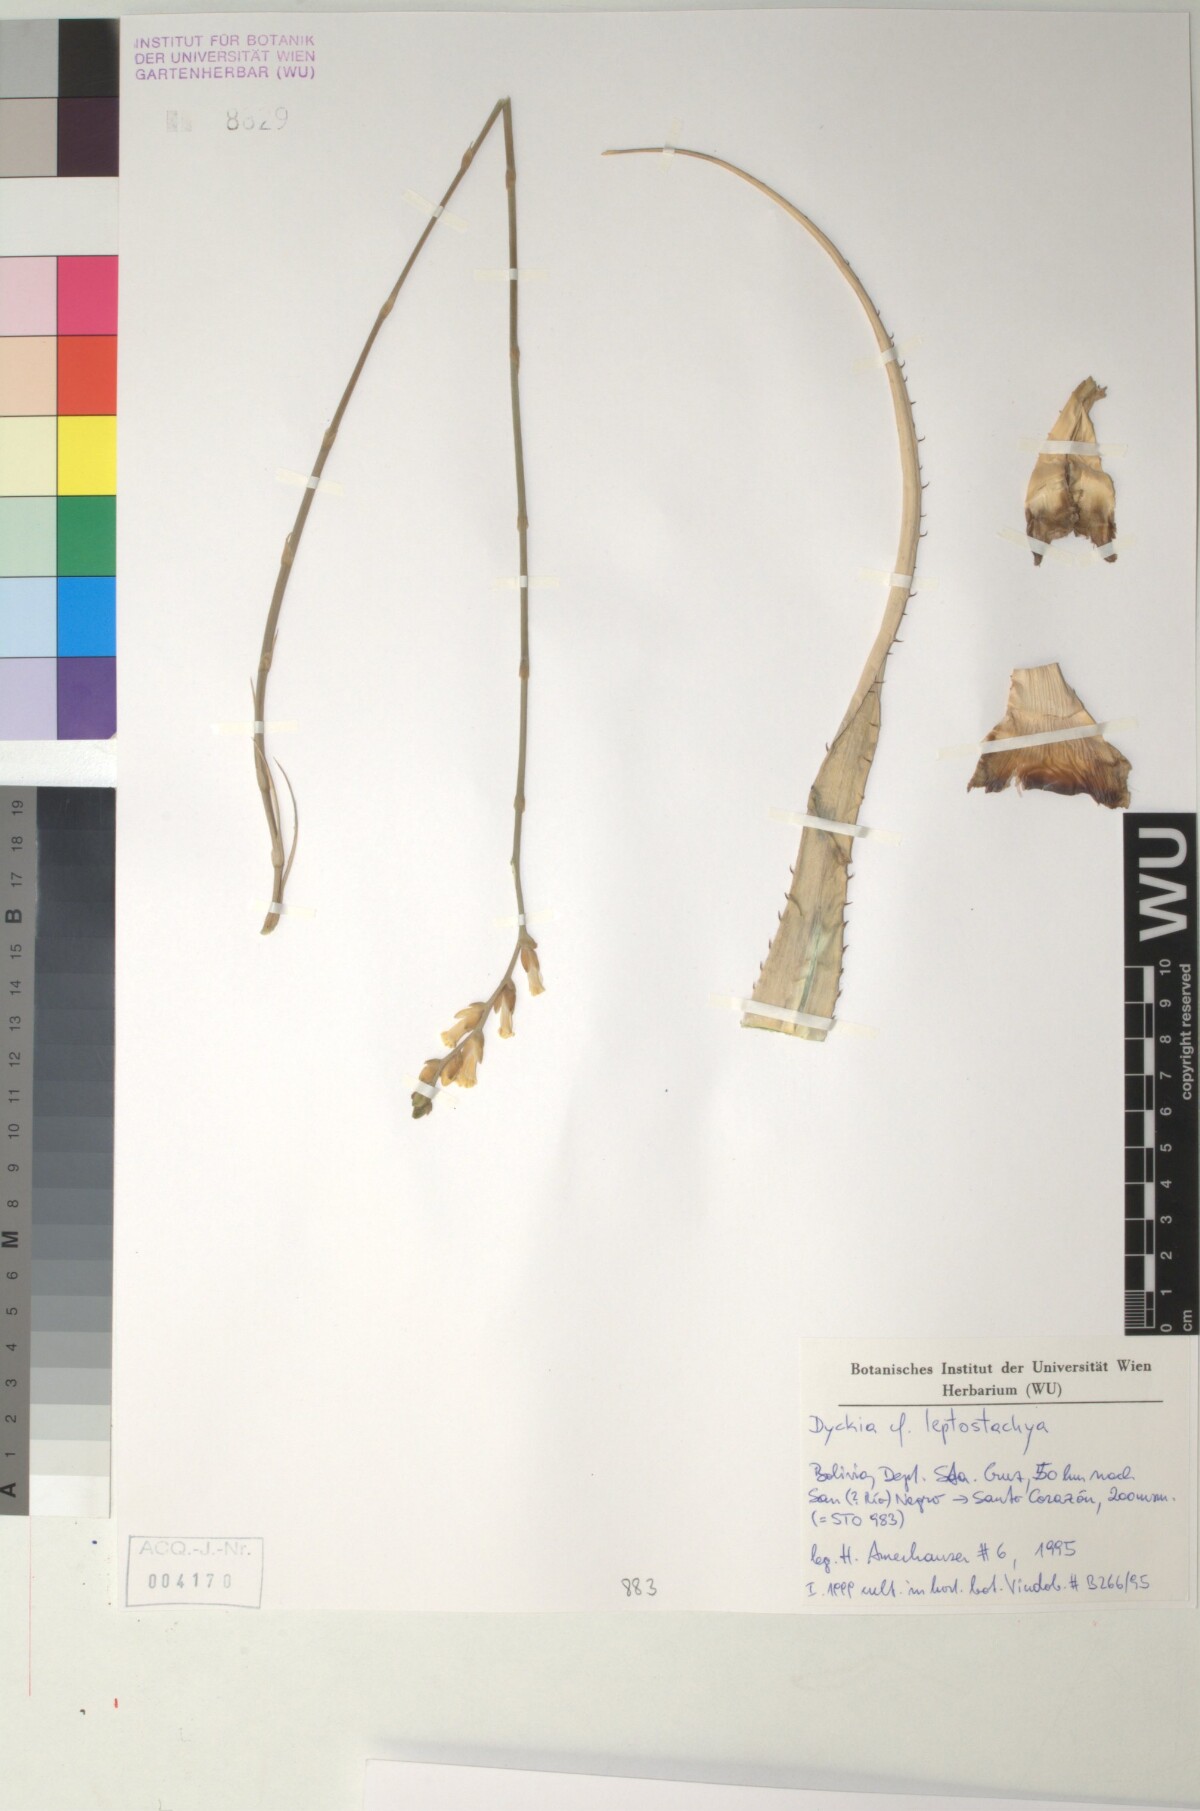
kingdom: Plantae
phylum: Tracheophyta
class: Liliopsida
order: Poales
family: Bromeliaceae
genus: Dyckia
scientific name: Dyckia leptostachya
